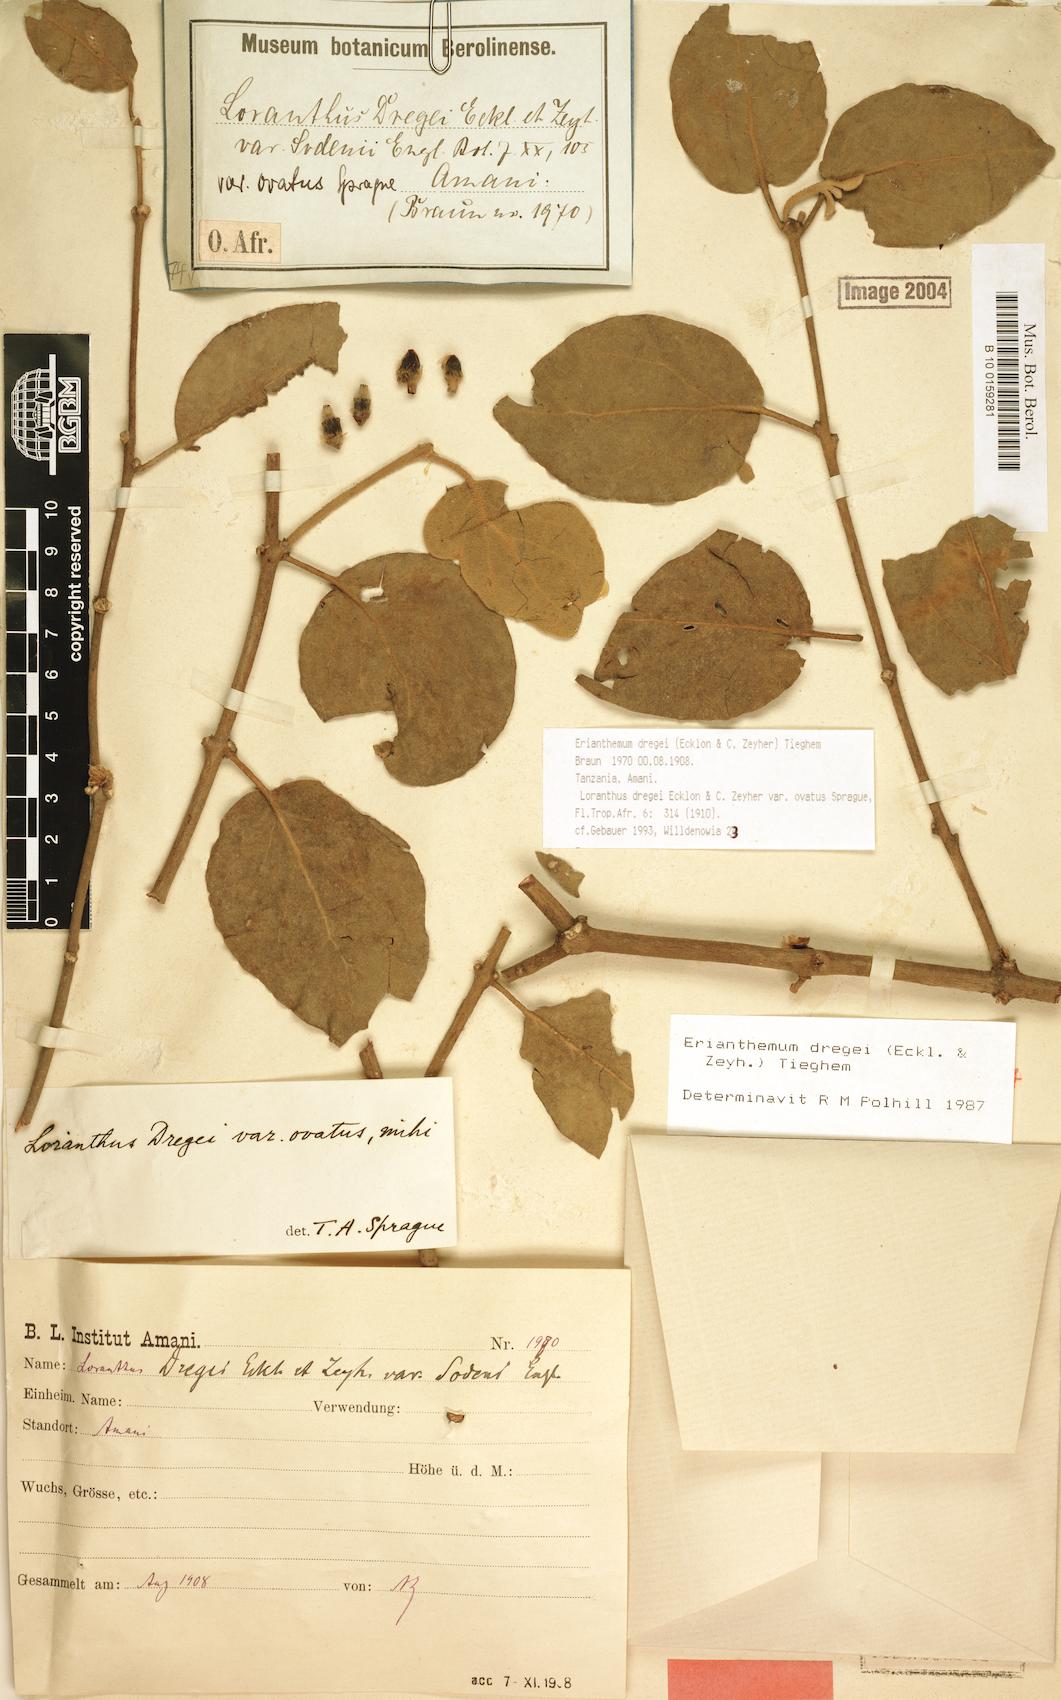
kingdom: Plantae
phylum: Tracheophyta
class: Magnoliopsida
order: Santalales
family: Loranthaceae
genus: Erianthemum
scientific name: Erianthemum dregei
